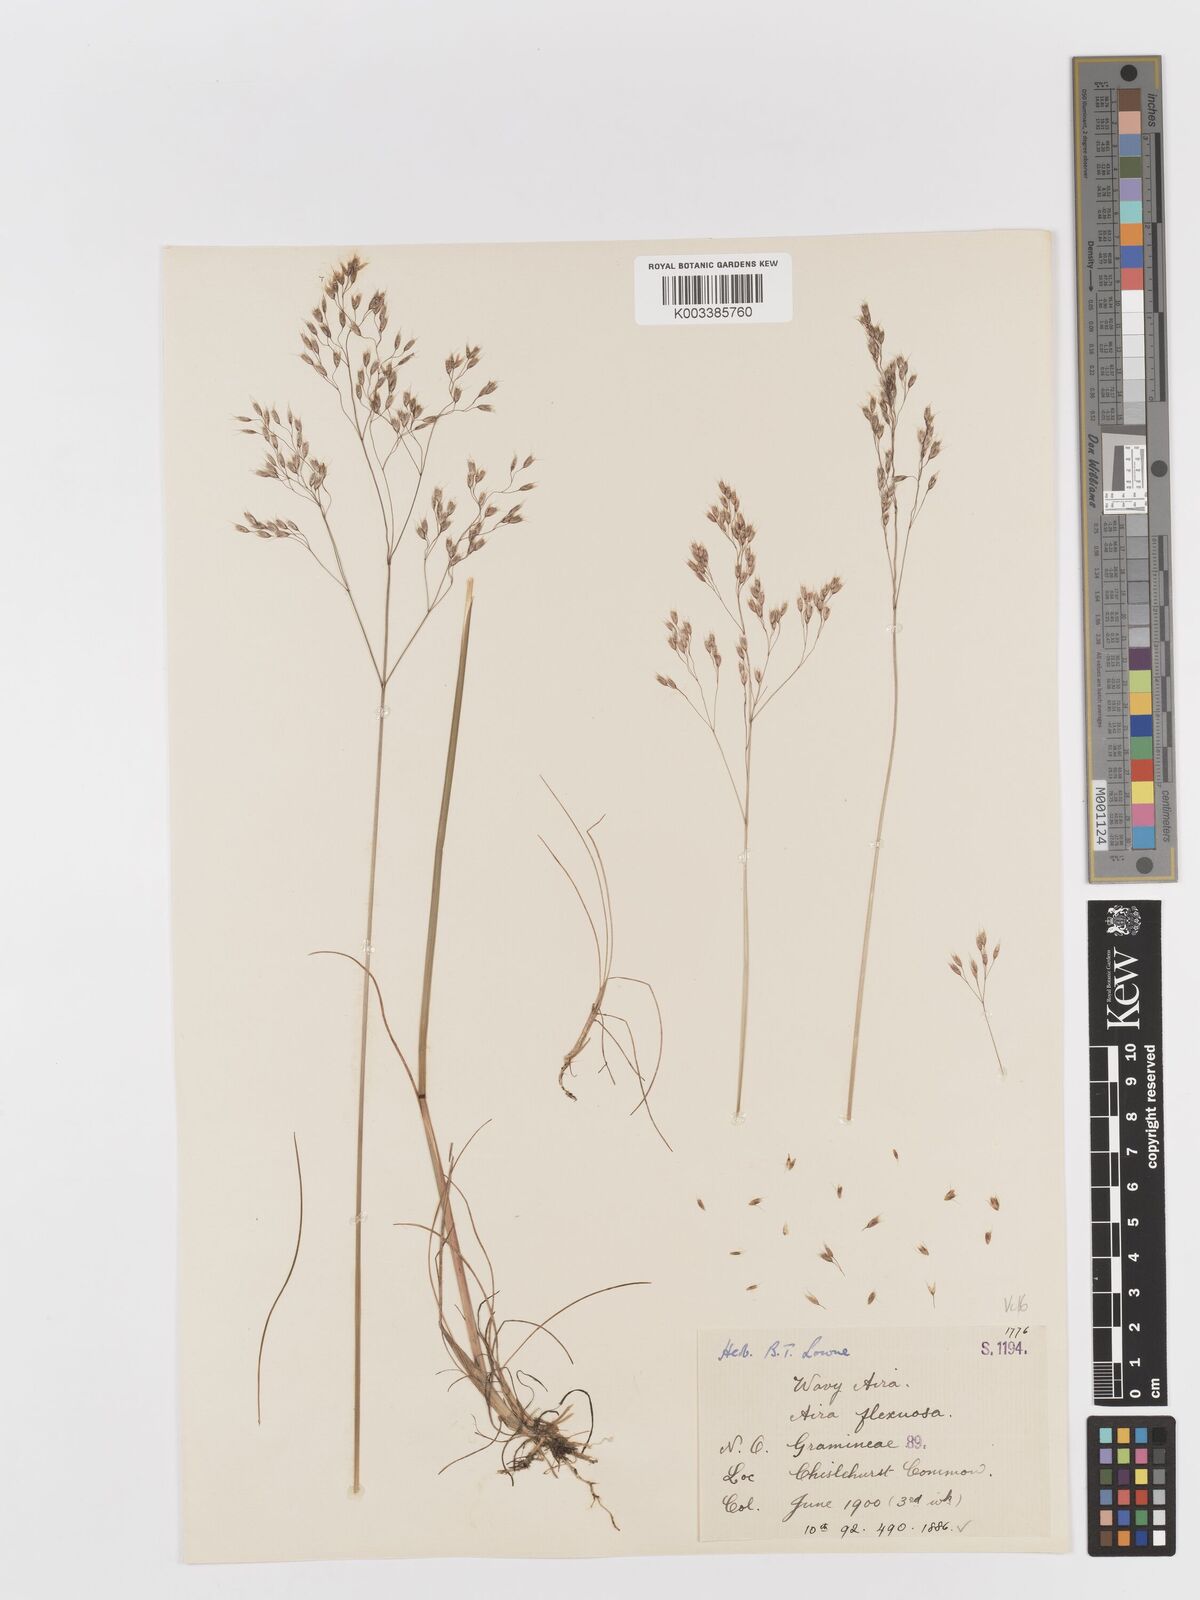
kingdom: Plantae
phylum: Tracheophyta
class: Liliopsida
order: Poales
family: Poaceae
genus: Avenella
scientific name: Avenella flexuosa
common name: Wavy hairgrass
